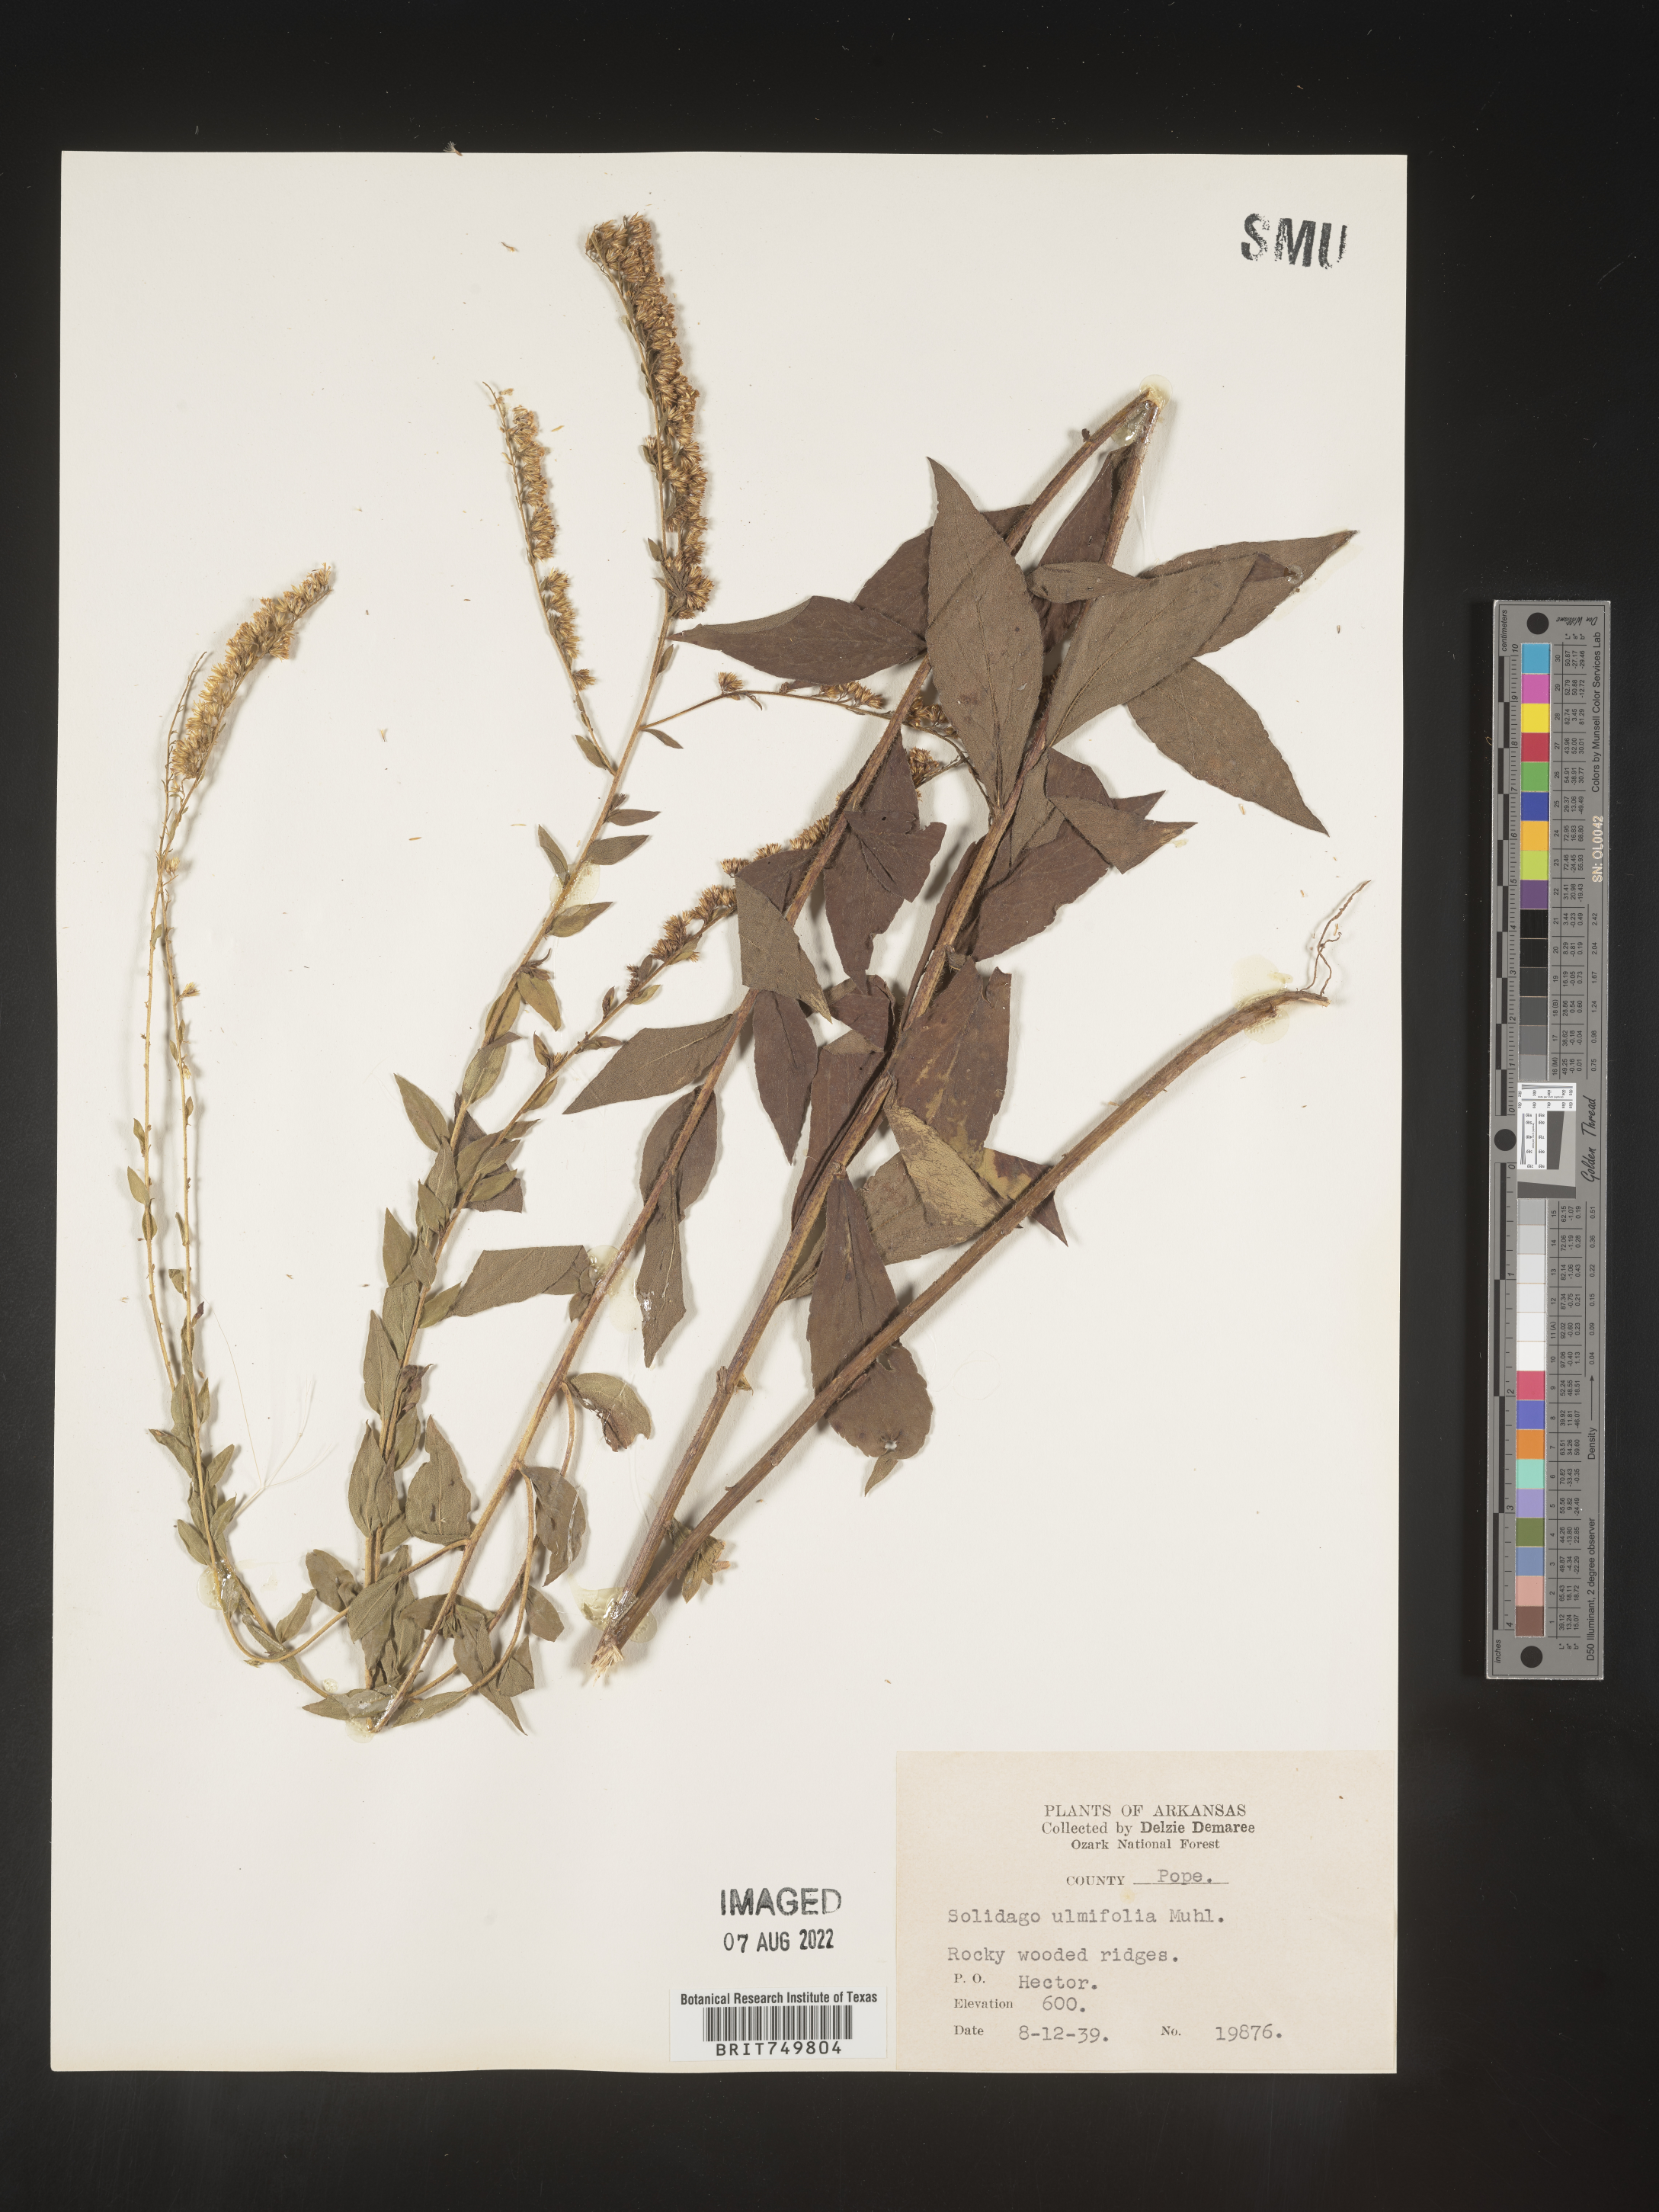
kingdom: Plantae
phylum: Tracheophyta
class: Magnoliopsida
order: Asterales
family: Asteraceae
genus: Solidago
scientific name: Solidago ulmifolia
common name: Elm-leaf goldenrod
